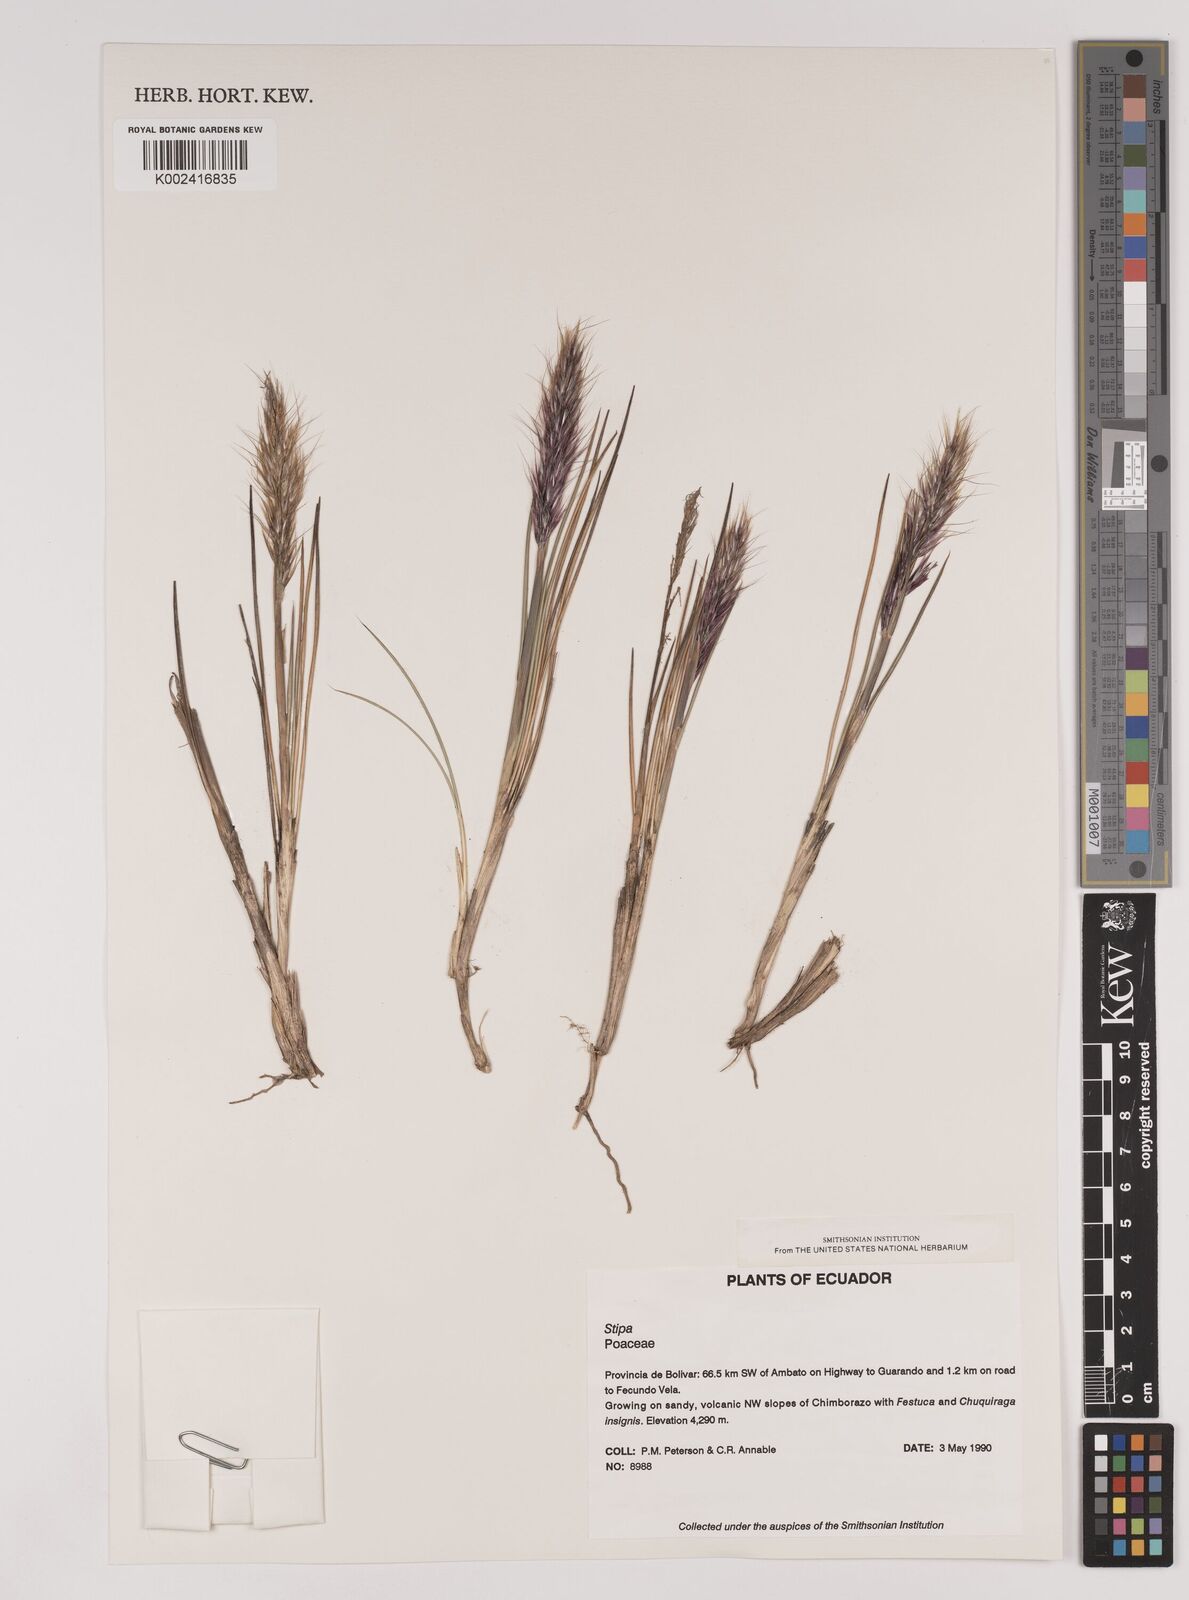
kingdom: Plantae
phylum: Tracheophyta
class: Liliopsida
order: Poales
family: Poaceae
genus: Stipa
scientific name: Stipa
